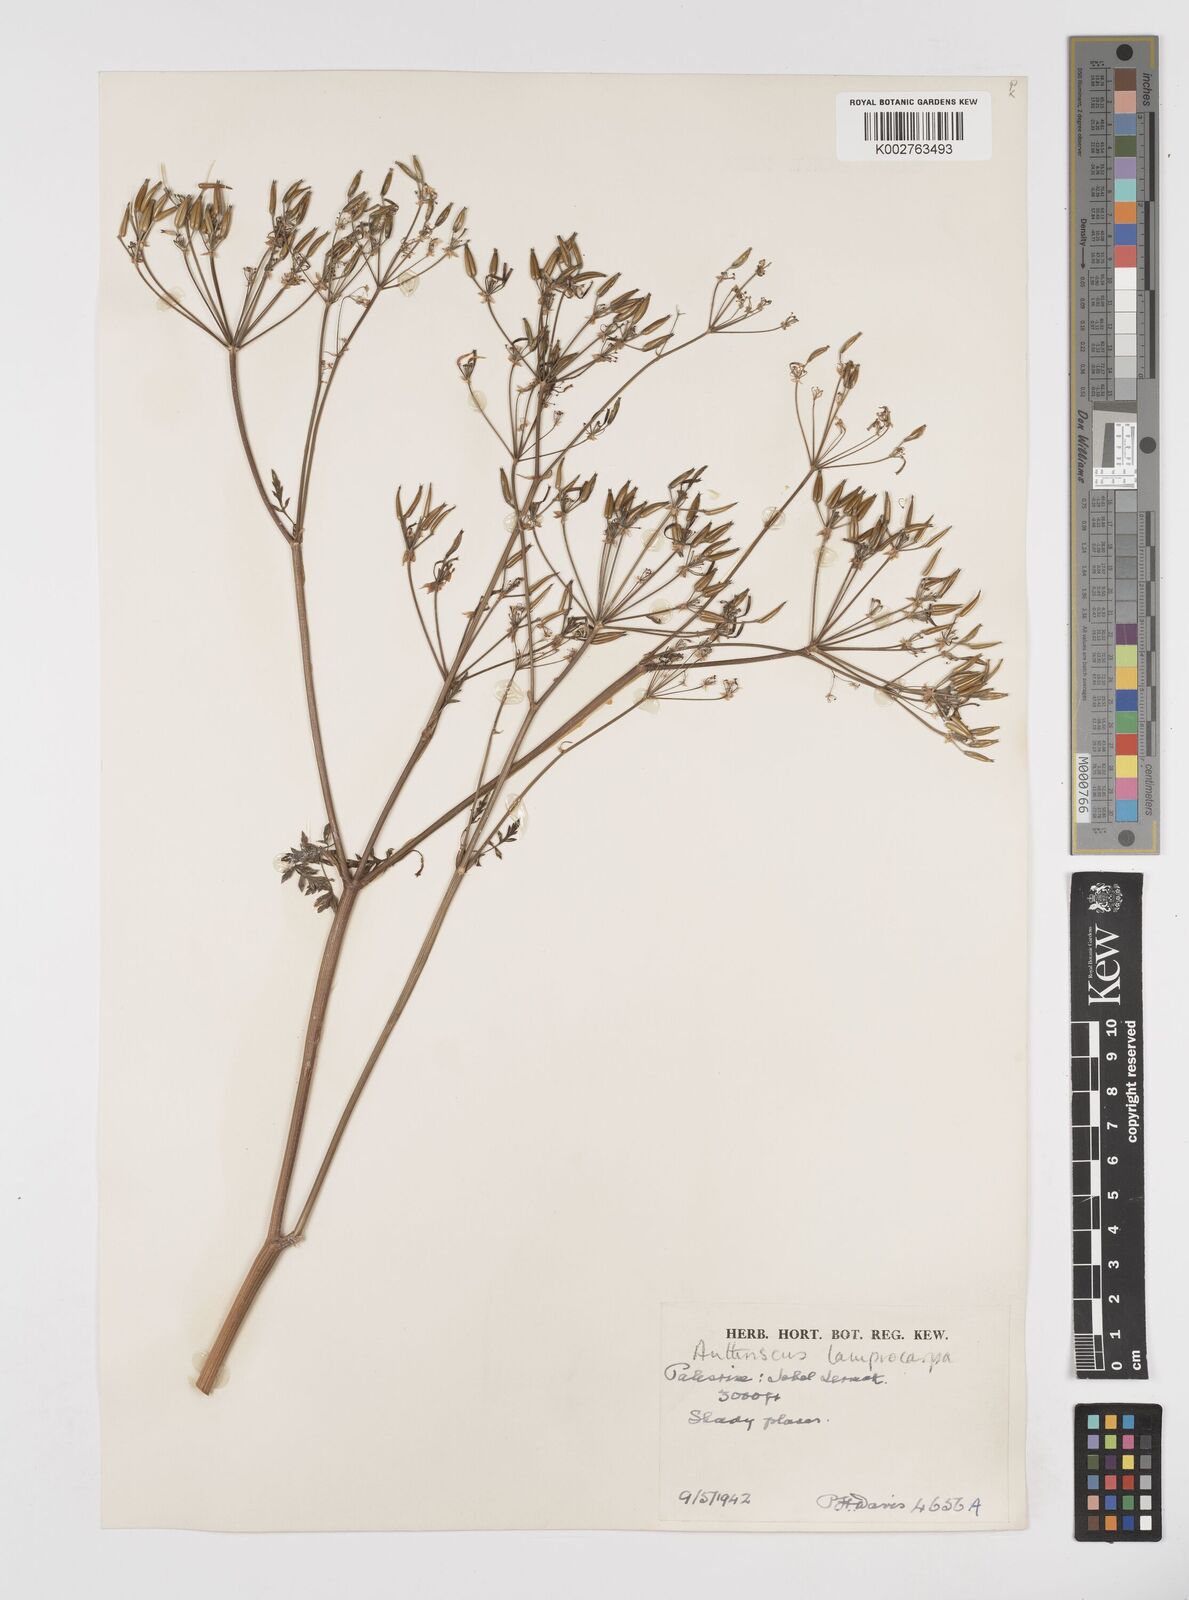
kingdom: Plantae
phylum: Tracheophyta
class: Magnoliopsida
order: Apiales
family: Apiaceae
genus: Anthriscus
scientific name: Anthriscus lamprocarpa
